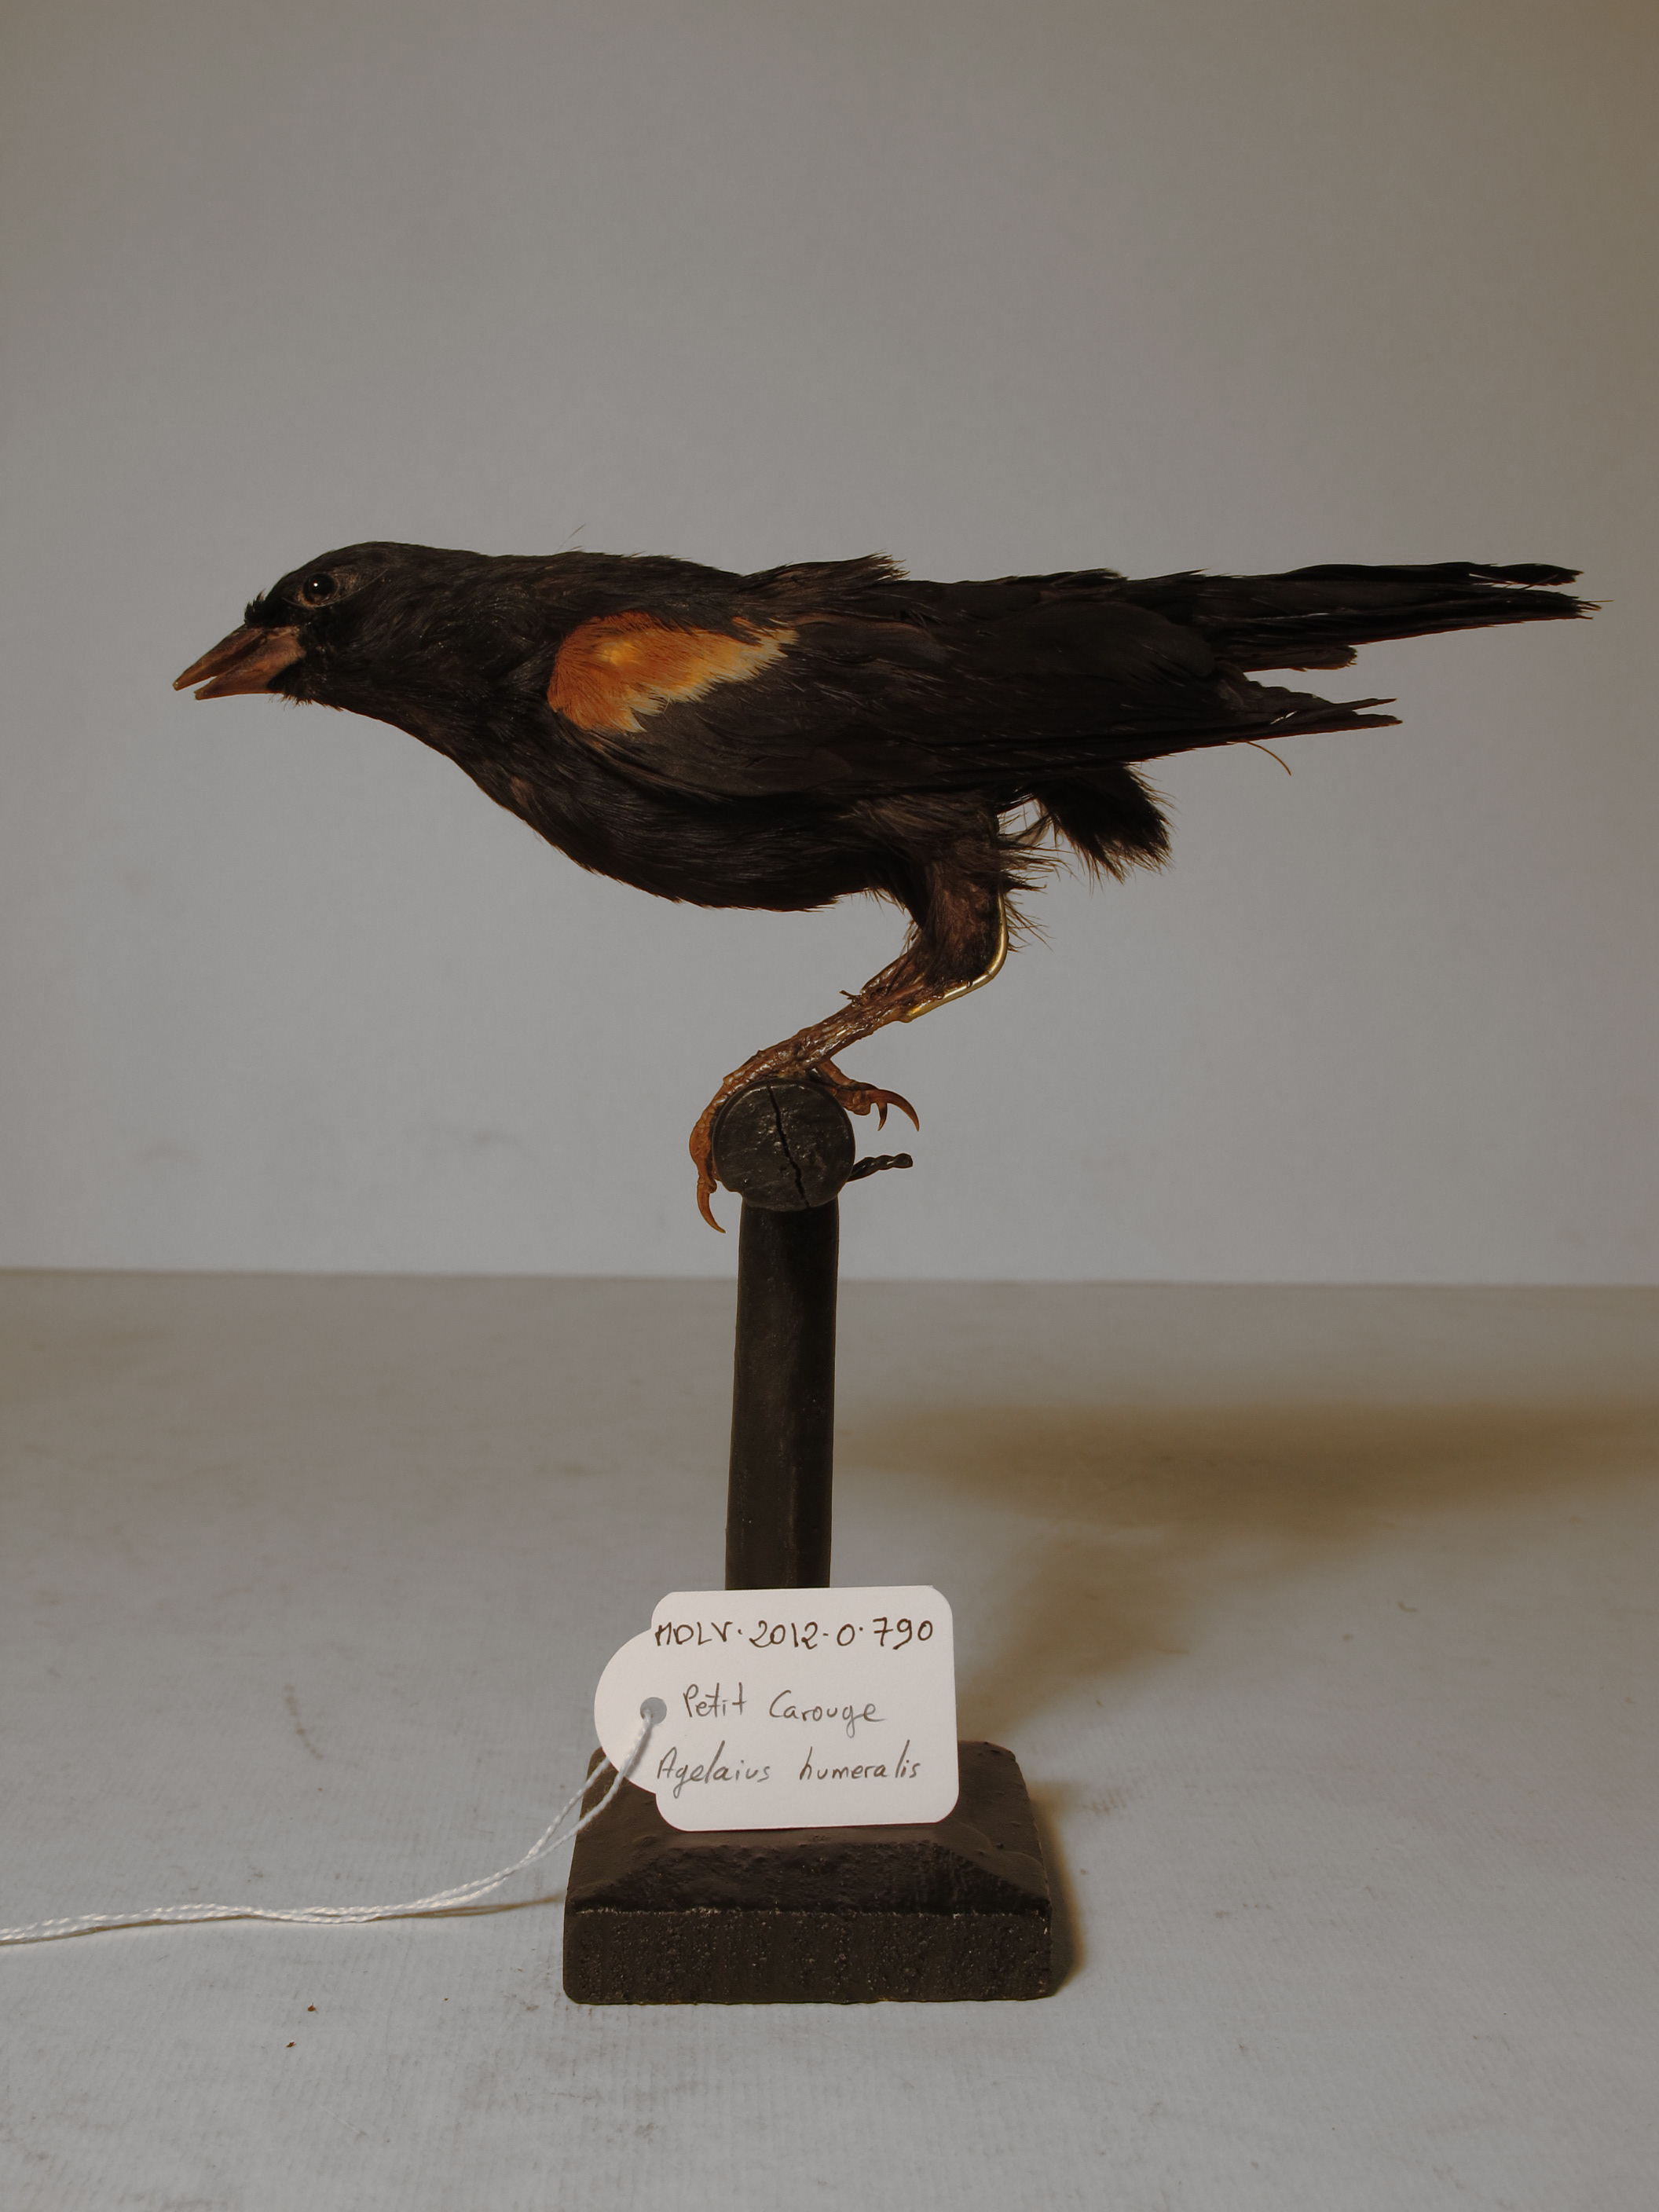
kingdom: Animalia
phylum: Chordata
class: Aves
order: Passeriformes
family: Icteridae
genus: Agelaius
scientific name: Agelaius humeralis
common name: Tawny-shouldered Blackbird
